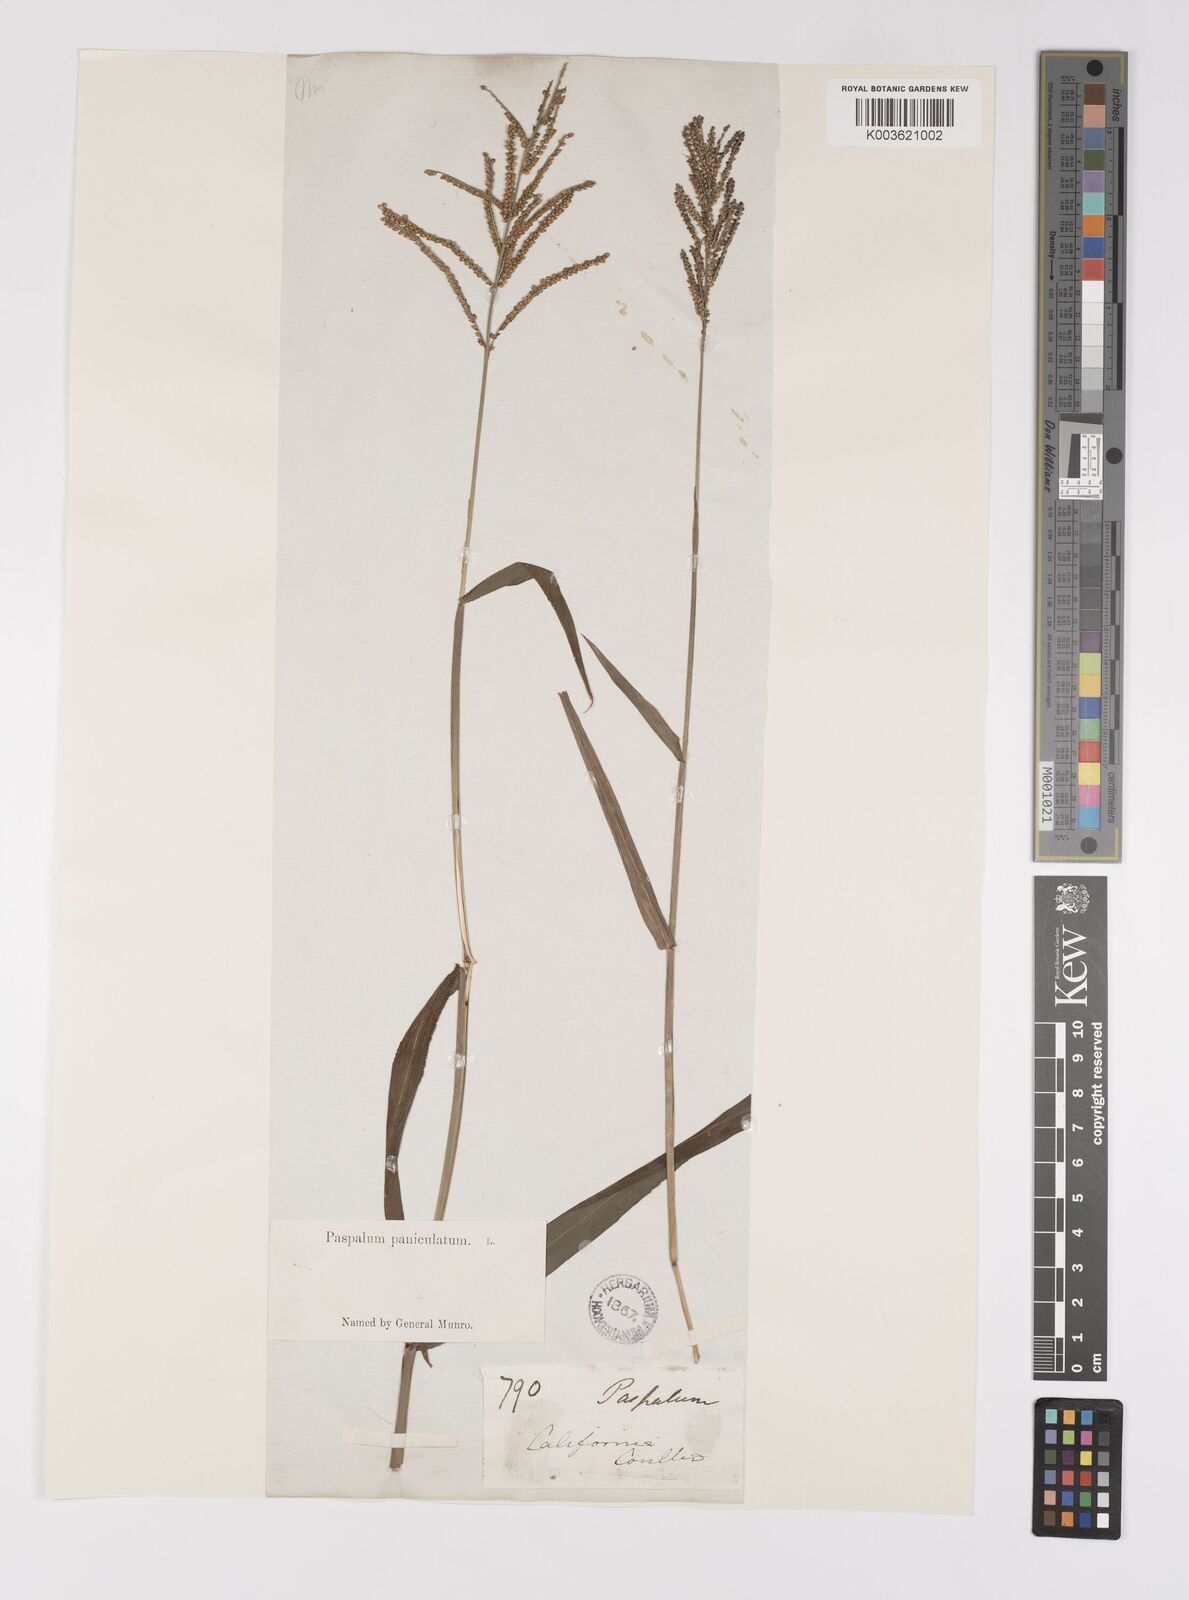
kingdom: Plantae
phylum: Tracheophyta
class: Liliopsida
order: Poales
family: Poaceae
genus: Paspalum
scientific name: Paspalum paniculatum
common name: Arrocillo
